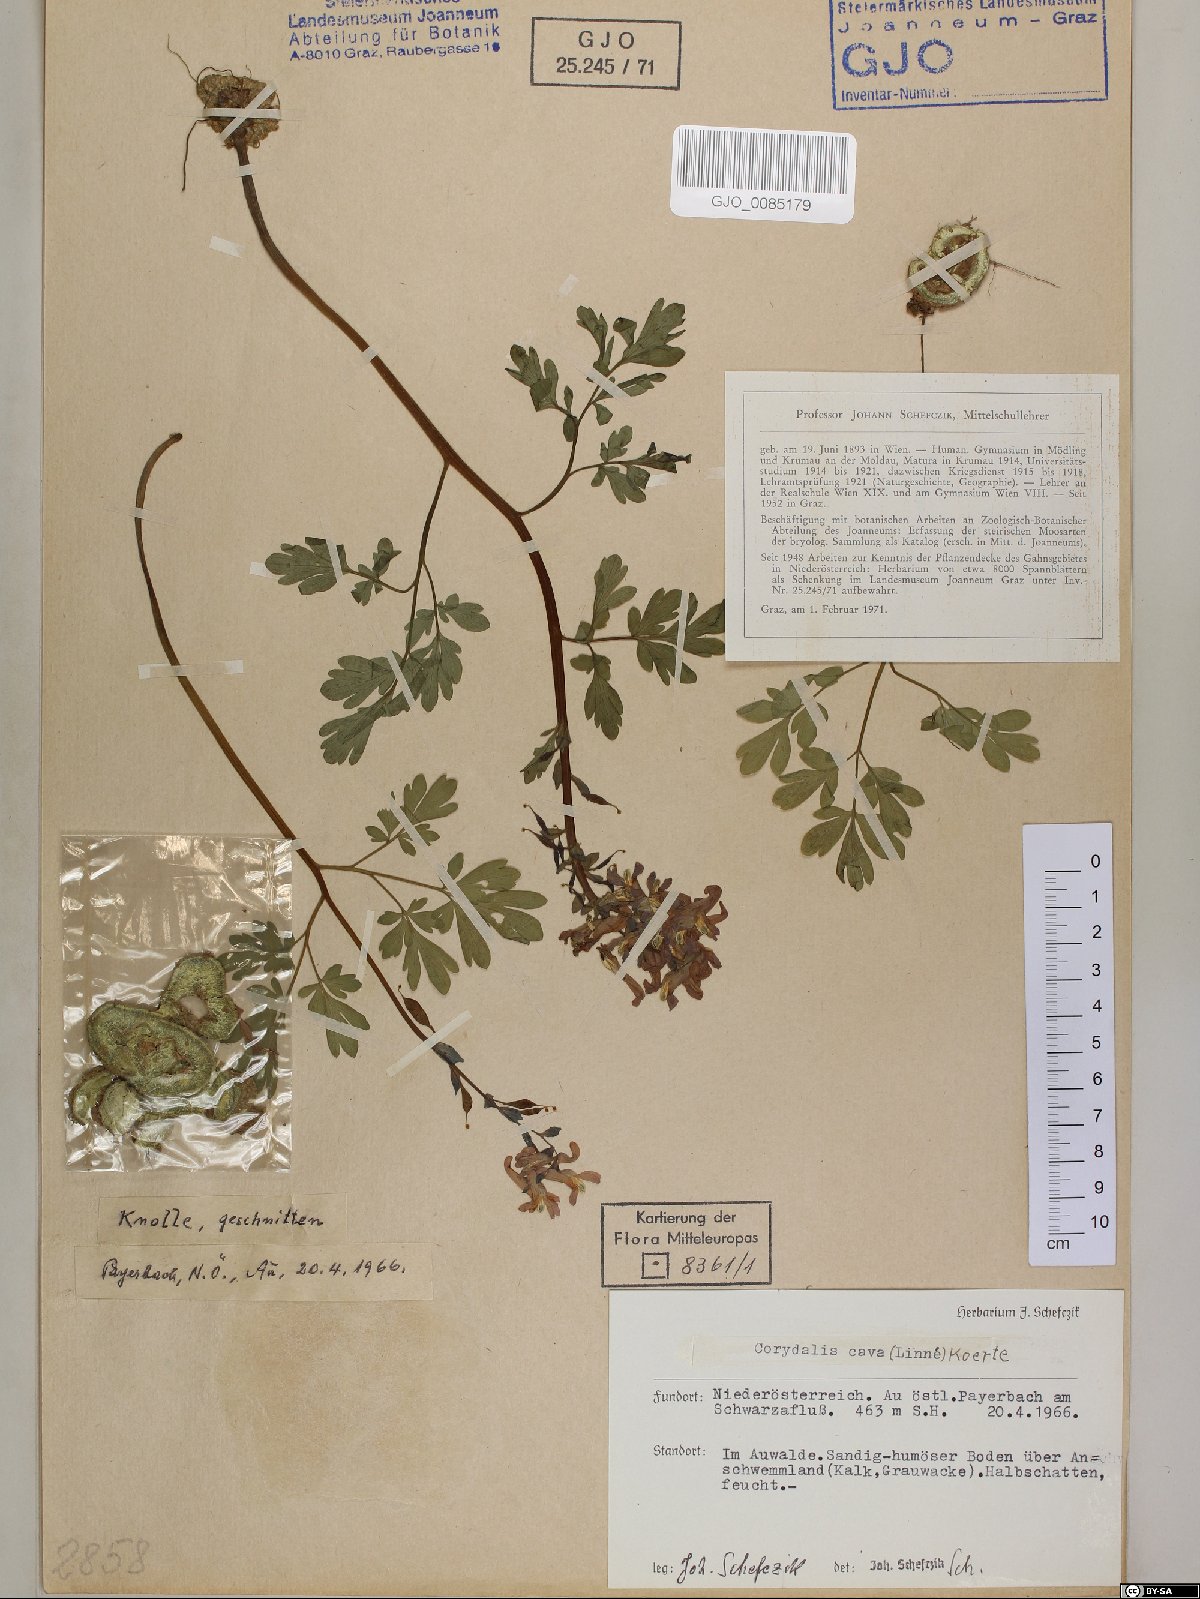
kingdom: Plantae
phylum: Tracheophyta
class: Magnoliopsida
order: Ranunculales
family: Papaveraceae
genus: Corydalis
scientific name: Corydalis cava
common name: Hollowroot
